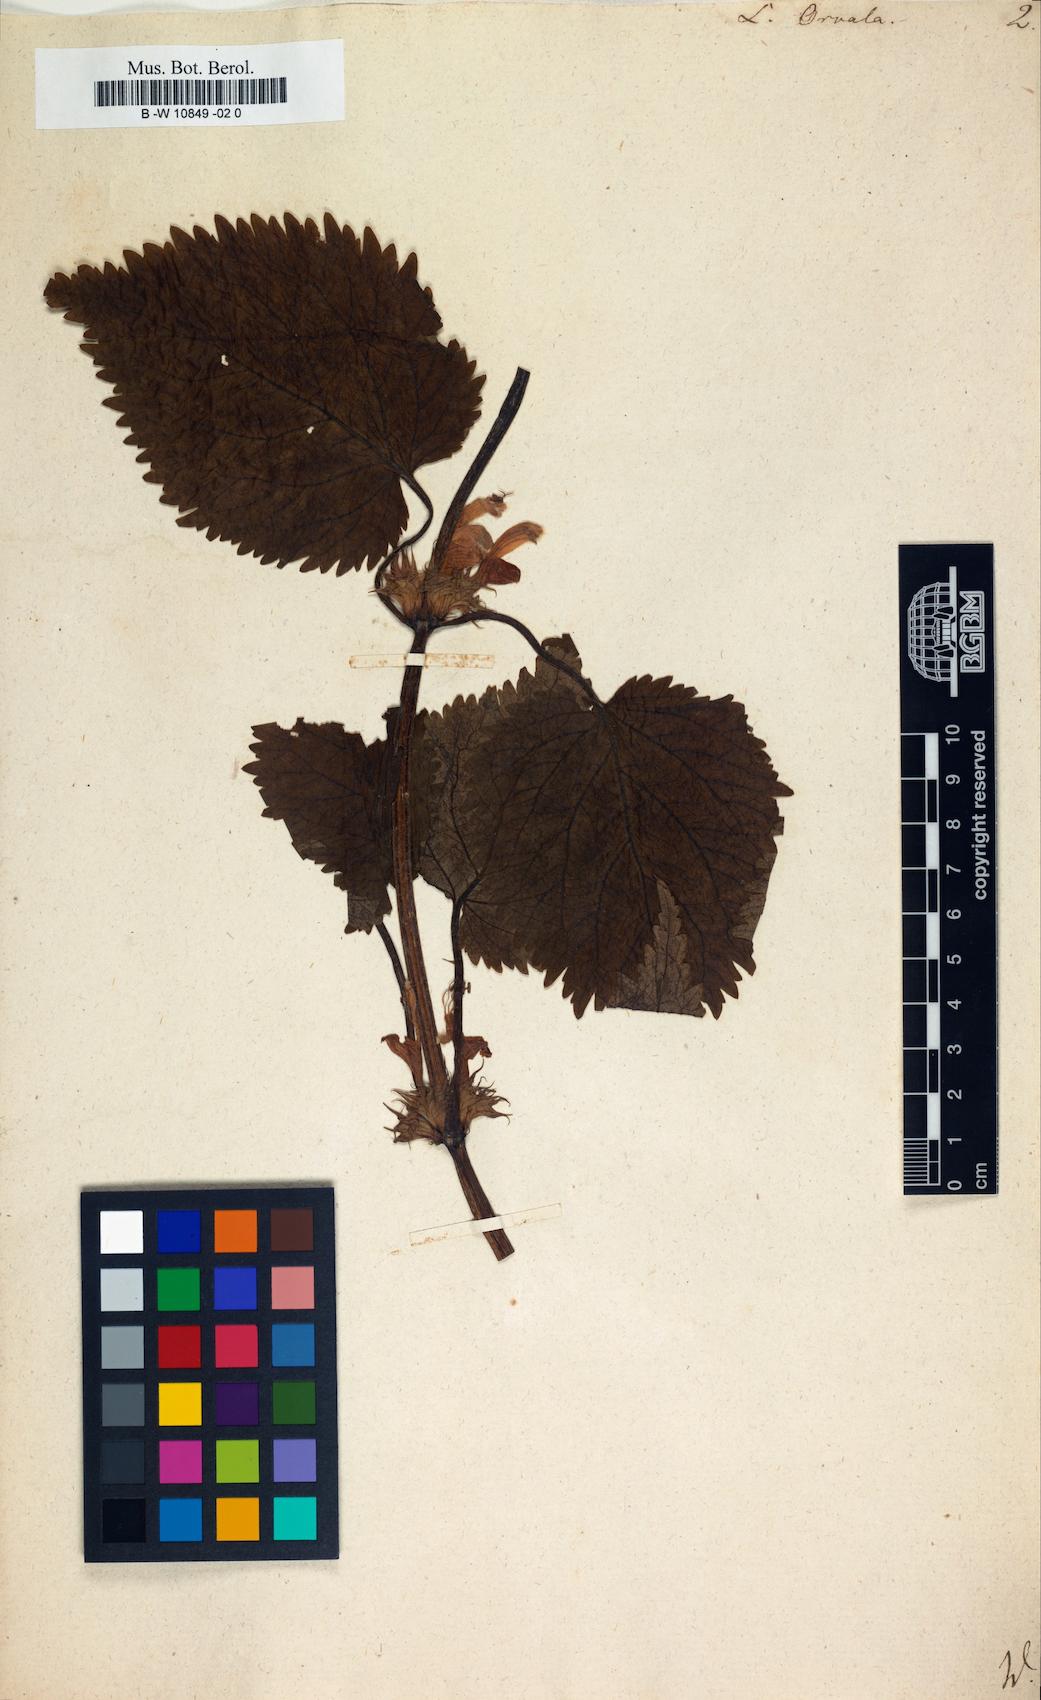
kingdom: Plantae
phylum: Tracheophyta
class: Magnoliopsida
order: Lamiales
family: Lamiaceae
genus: Lamium
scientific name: Lamium orvala
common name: Balm-leaved archangel
